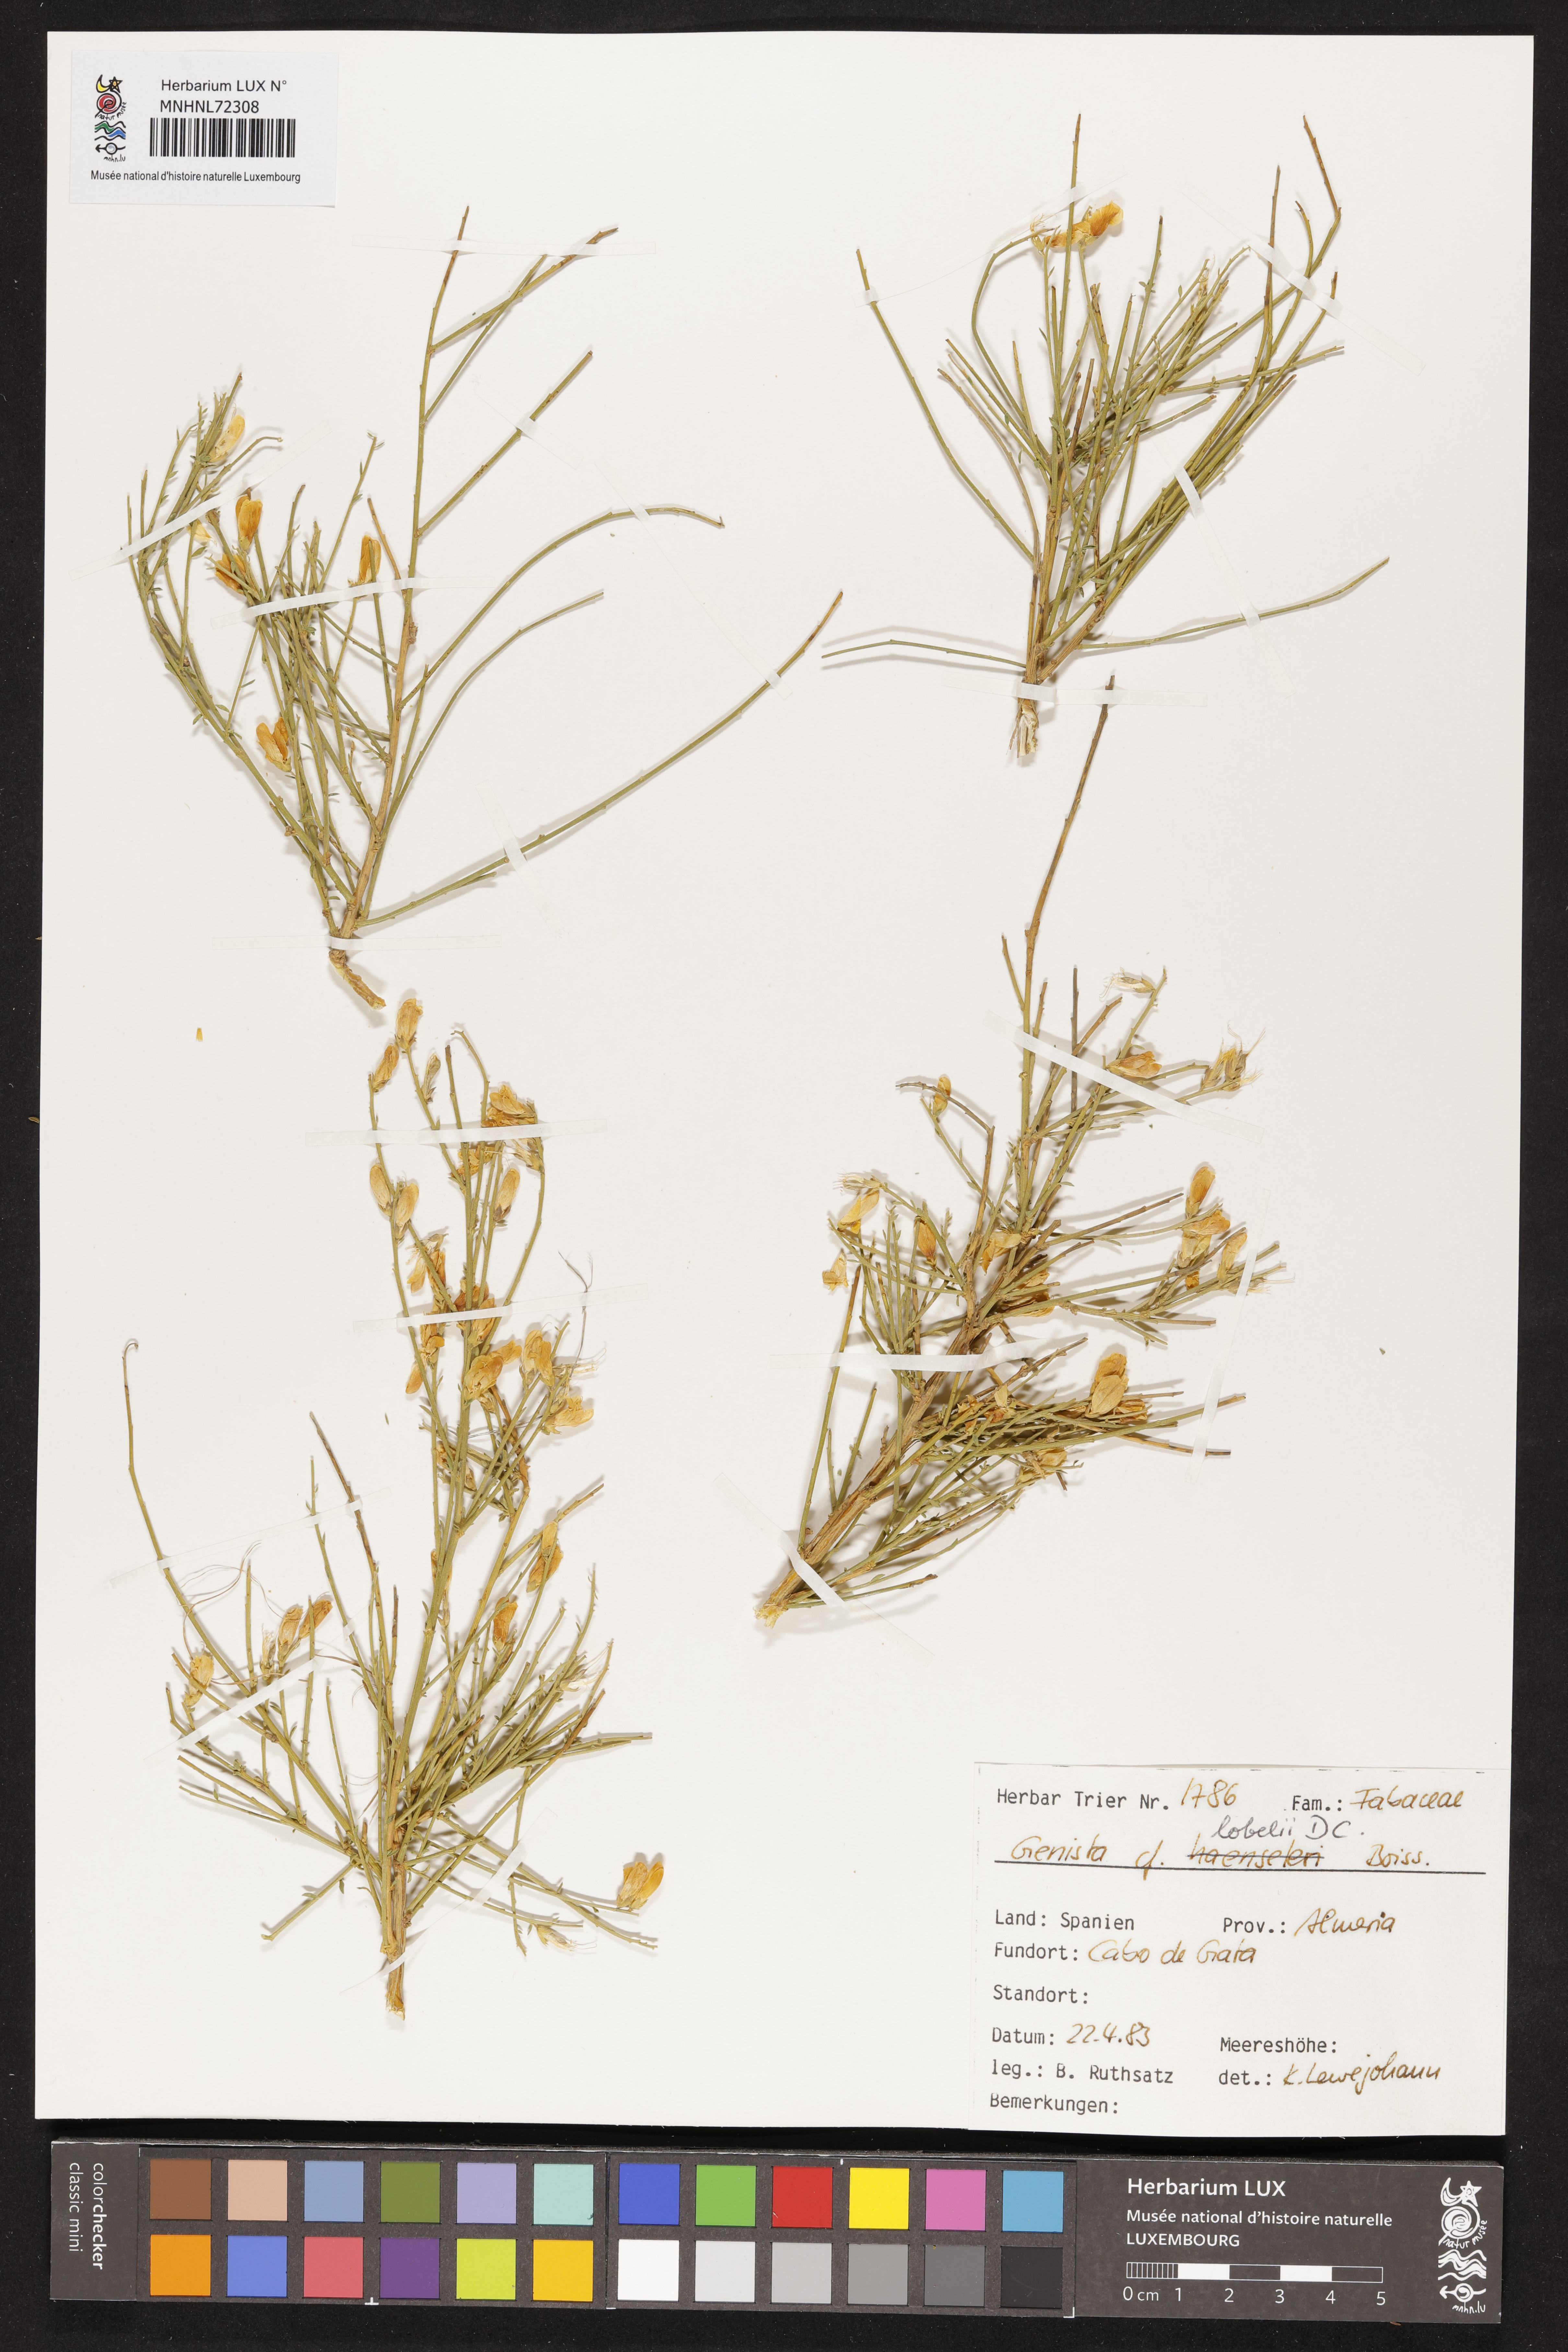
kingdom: Plantae
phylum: Tracheophyta
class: Magnoliopsida
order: Fabales
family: Fabaceae
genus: Genista
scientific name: Genista lobelii
